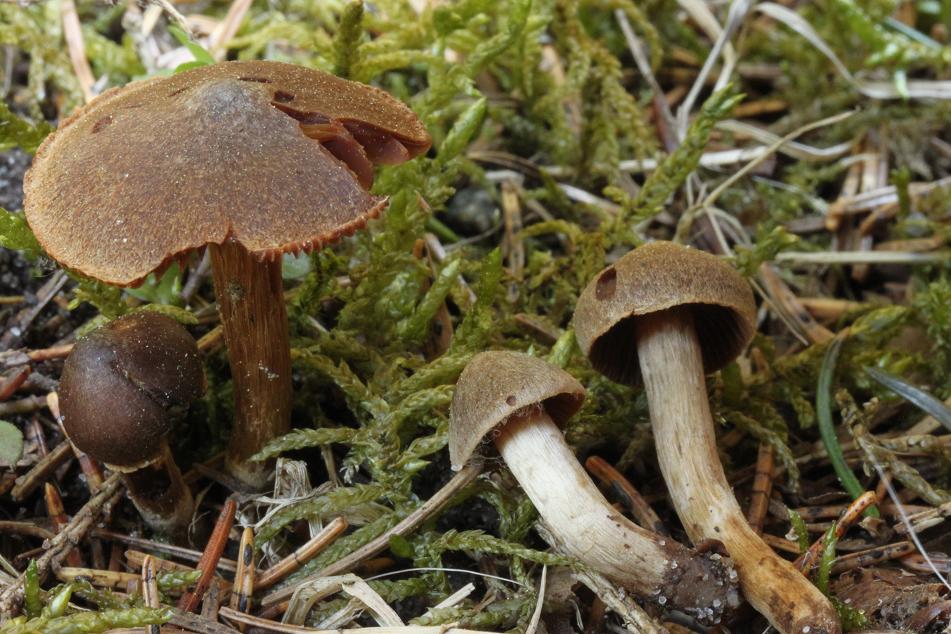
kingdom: Fungi
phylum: Basidiomycota
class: Agaricomycetes
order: Agaricales
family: Cortinariaceae
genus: Cortinarius
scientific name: Cortinarius
